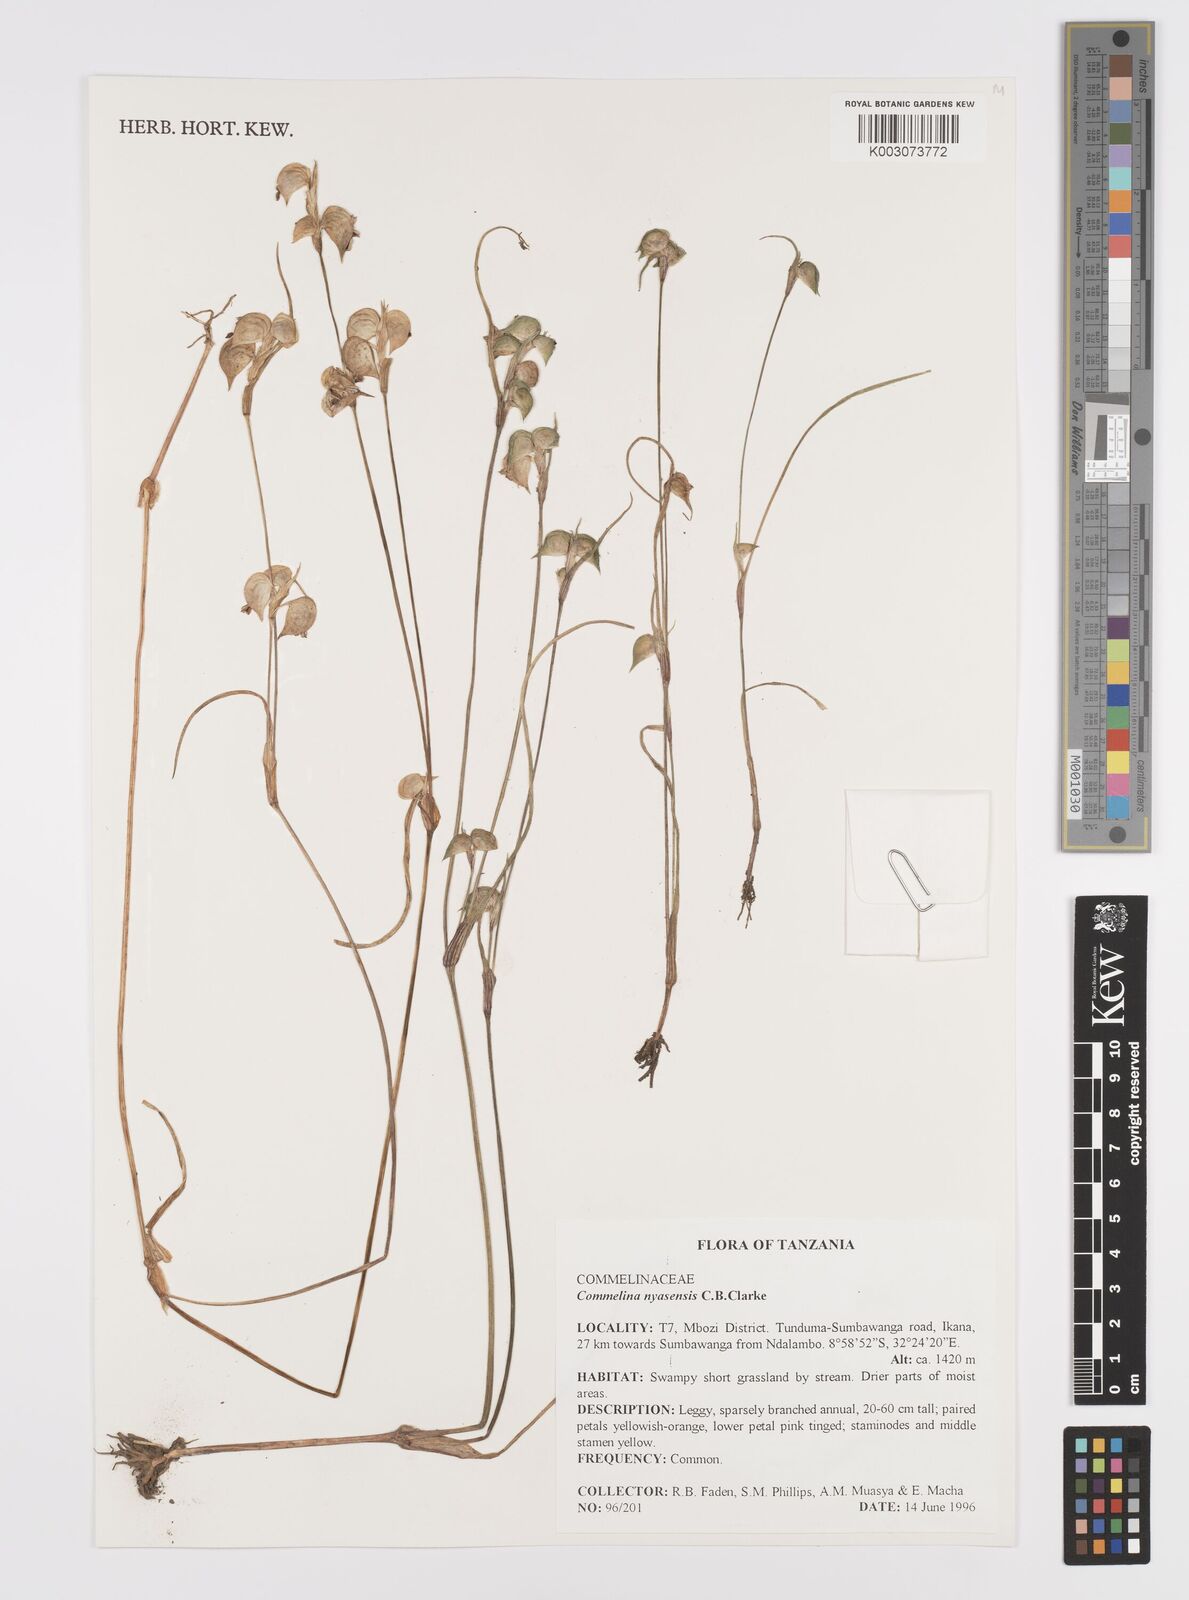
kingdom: Plantae
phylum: Tracheophyta
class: Liliopsida
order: Commelinales
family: Commelinaceae
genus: Commelina
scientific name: Commelina nyasensis
